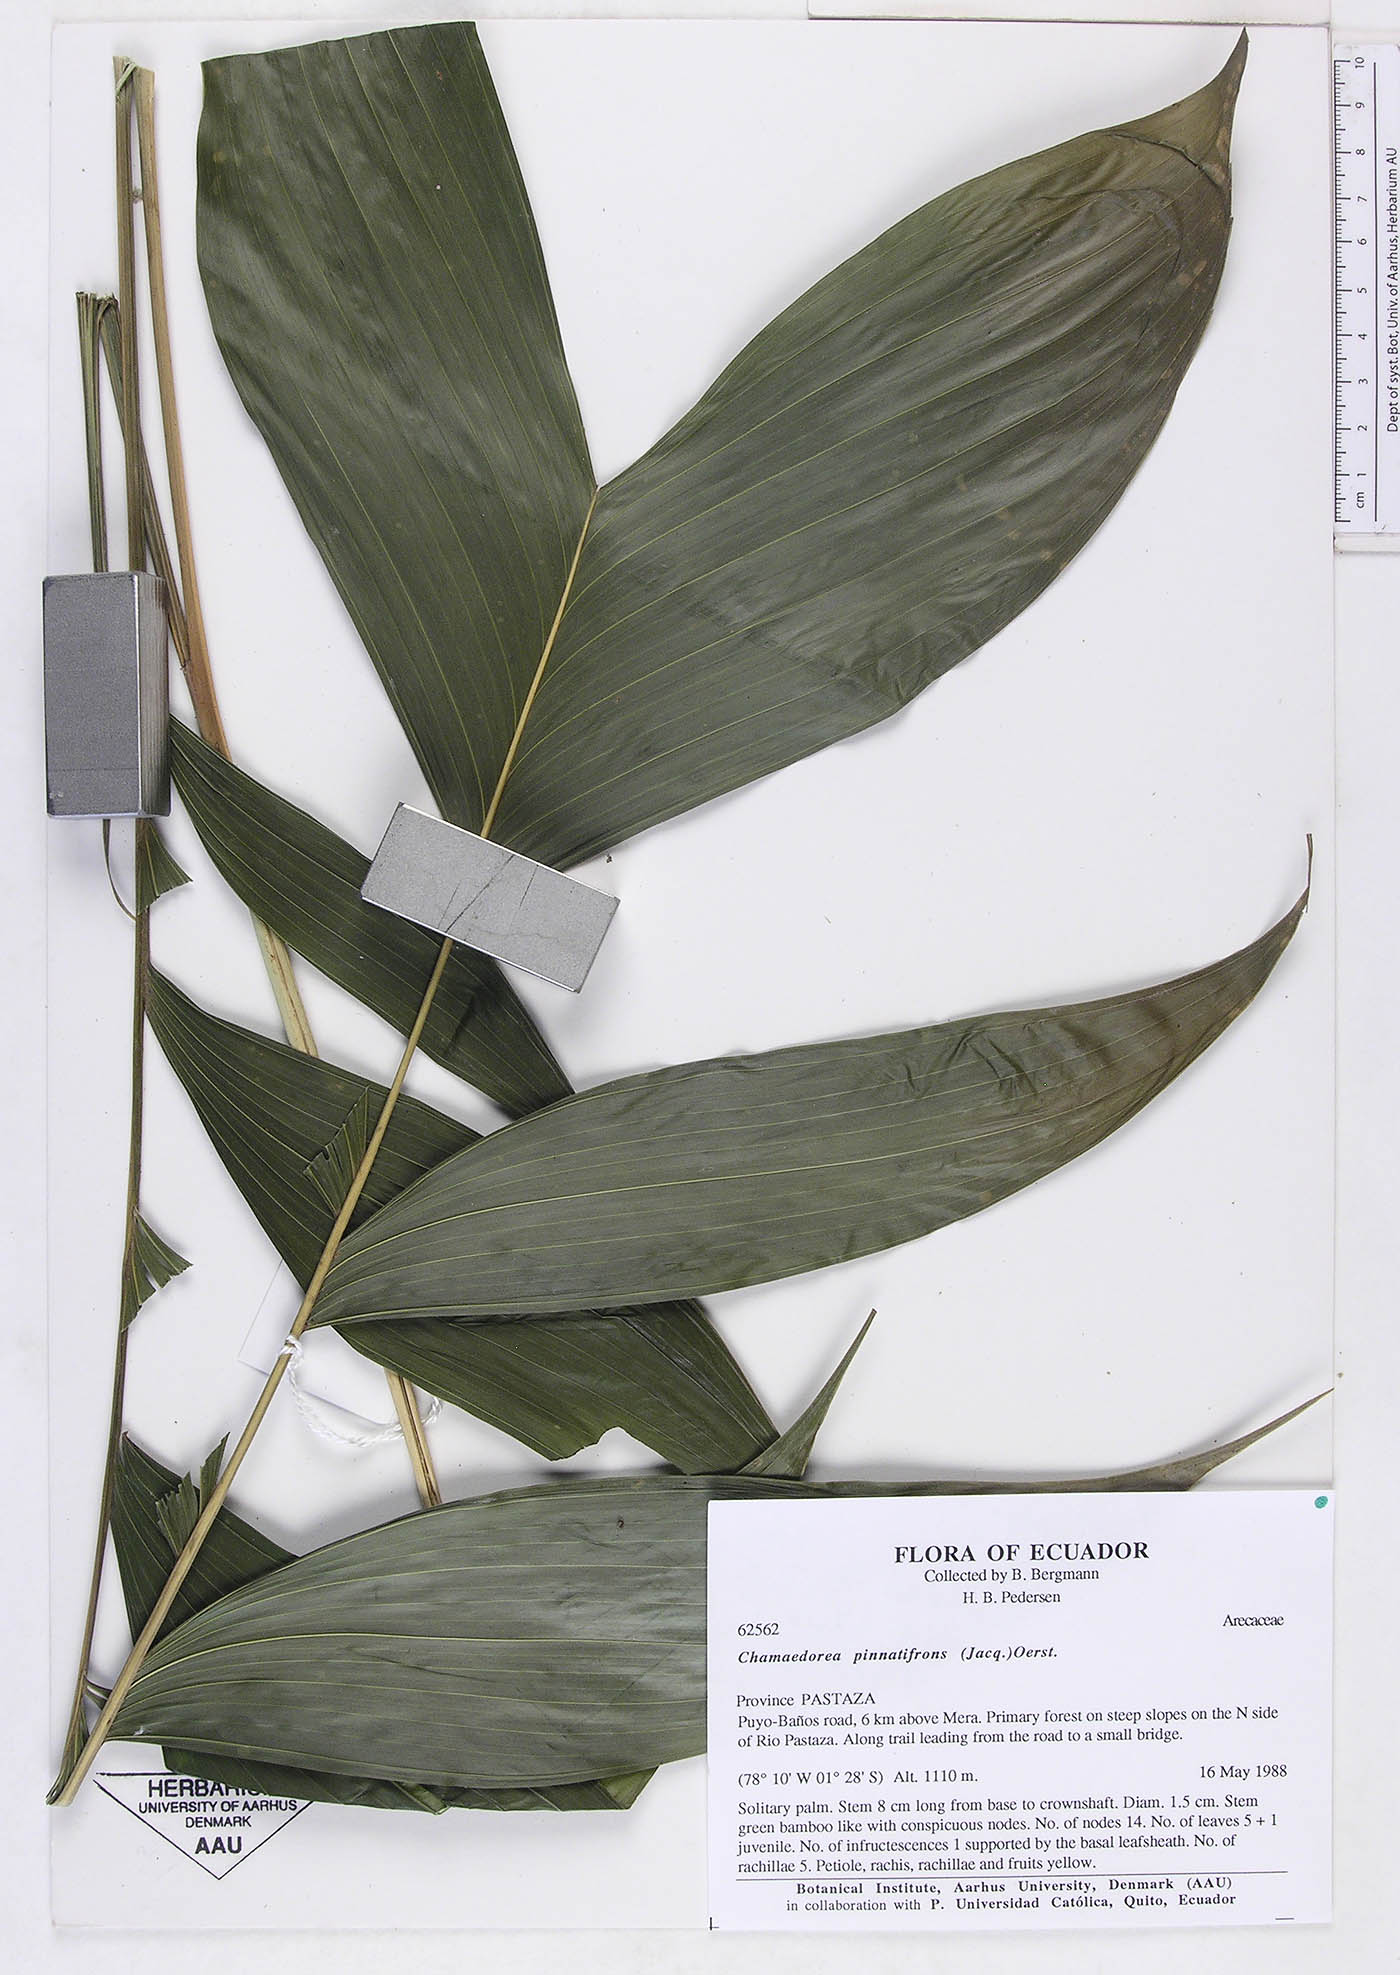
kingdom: Plantae
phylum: Tracheophyta
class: Liliopsida
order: Arecales
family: Arecaceae
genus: Chamaedorea
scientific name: Chamaedorea pinnatifrons
